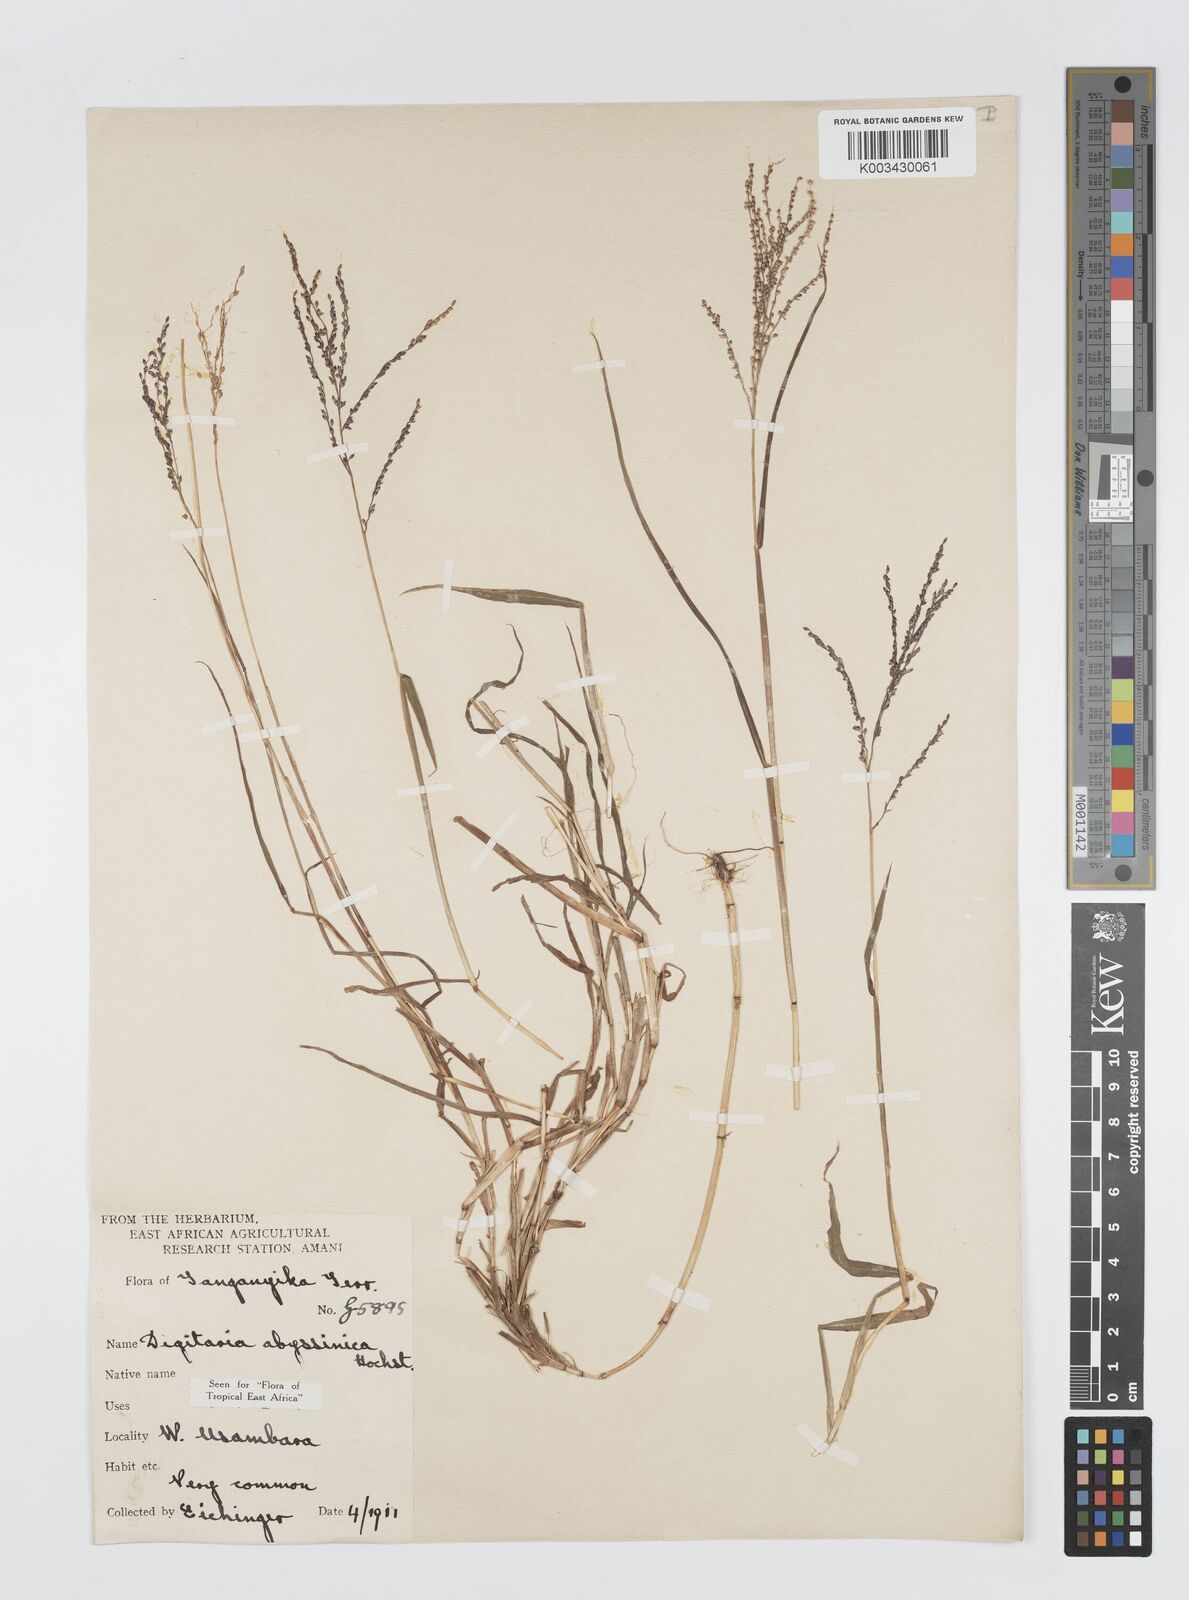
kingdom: Plantae
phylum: Tracheophyta
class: Liliopsida
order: Poales
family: Poaceae
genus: Digitaria
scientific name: Digitaria abyssinica
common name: African couchgrass
